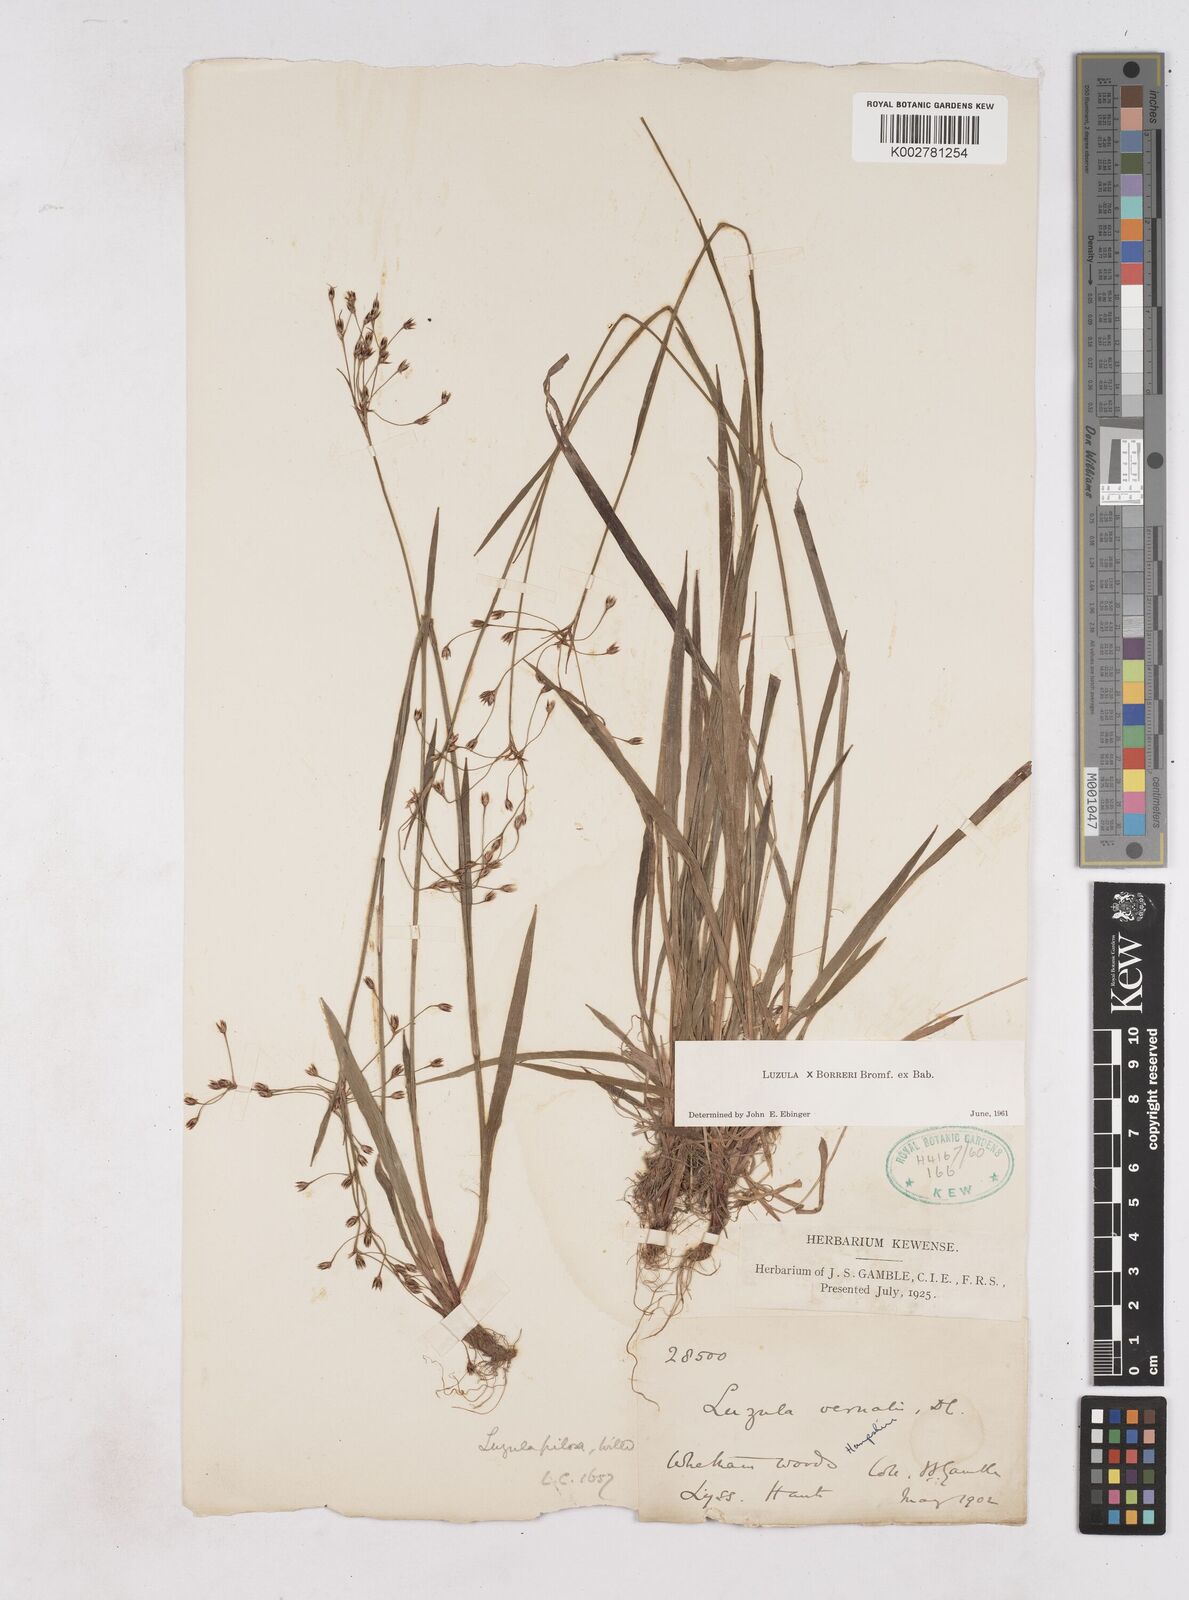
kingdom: Plantae
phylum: Tracheophyta
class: Liliopsida
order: Poales
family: Juncaceae
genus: Luzula
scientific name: Luzula forsteri
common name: Southern wood-rush
